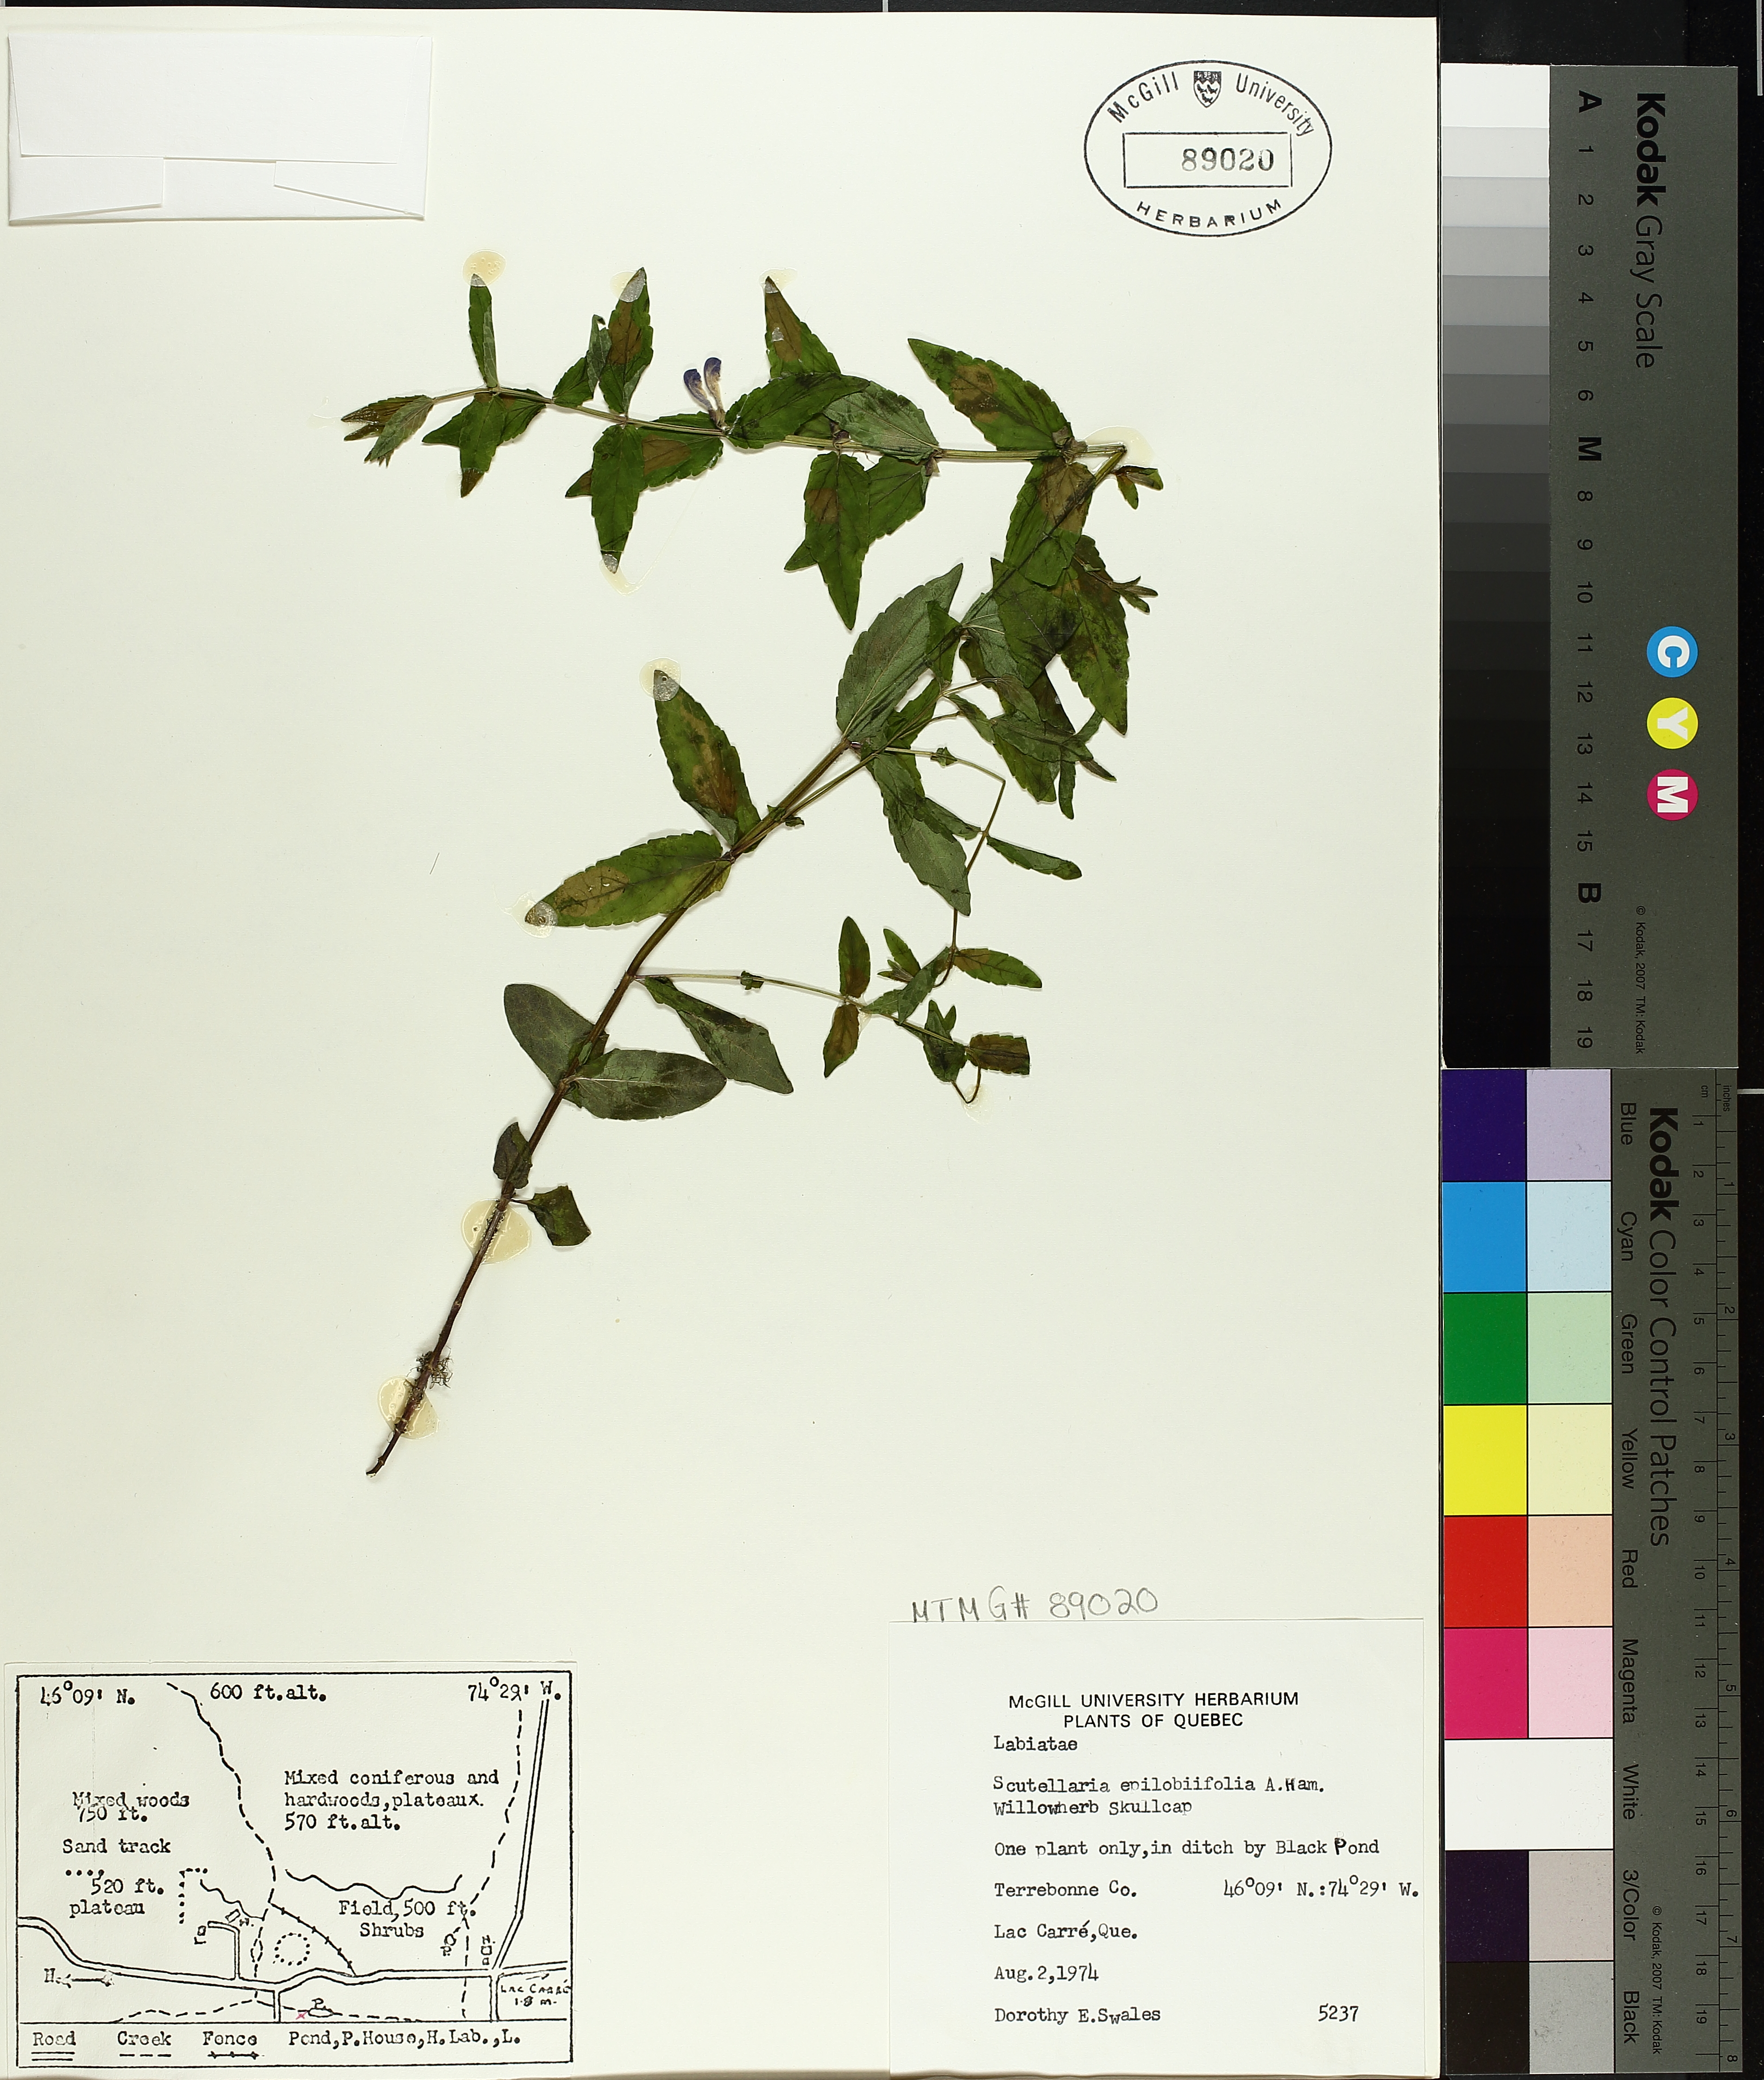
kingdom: Plantae
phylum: Tracheophyta
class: Magnoliopsida
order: Lamiales
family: Lamiaceae
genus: Scutellaria
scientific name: Scutellaria galericulata
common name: Skullcap
